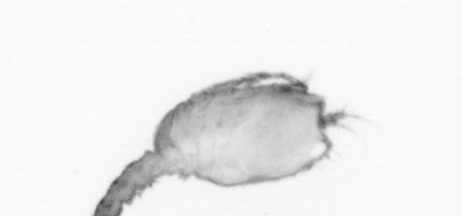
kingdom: Animalia
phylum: Arthropoda
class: Copepoda
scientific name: Copepoda
